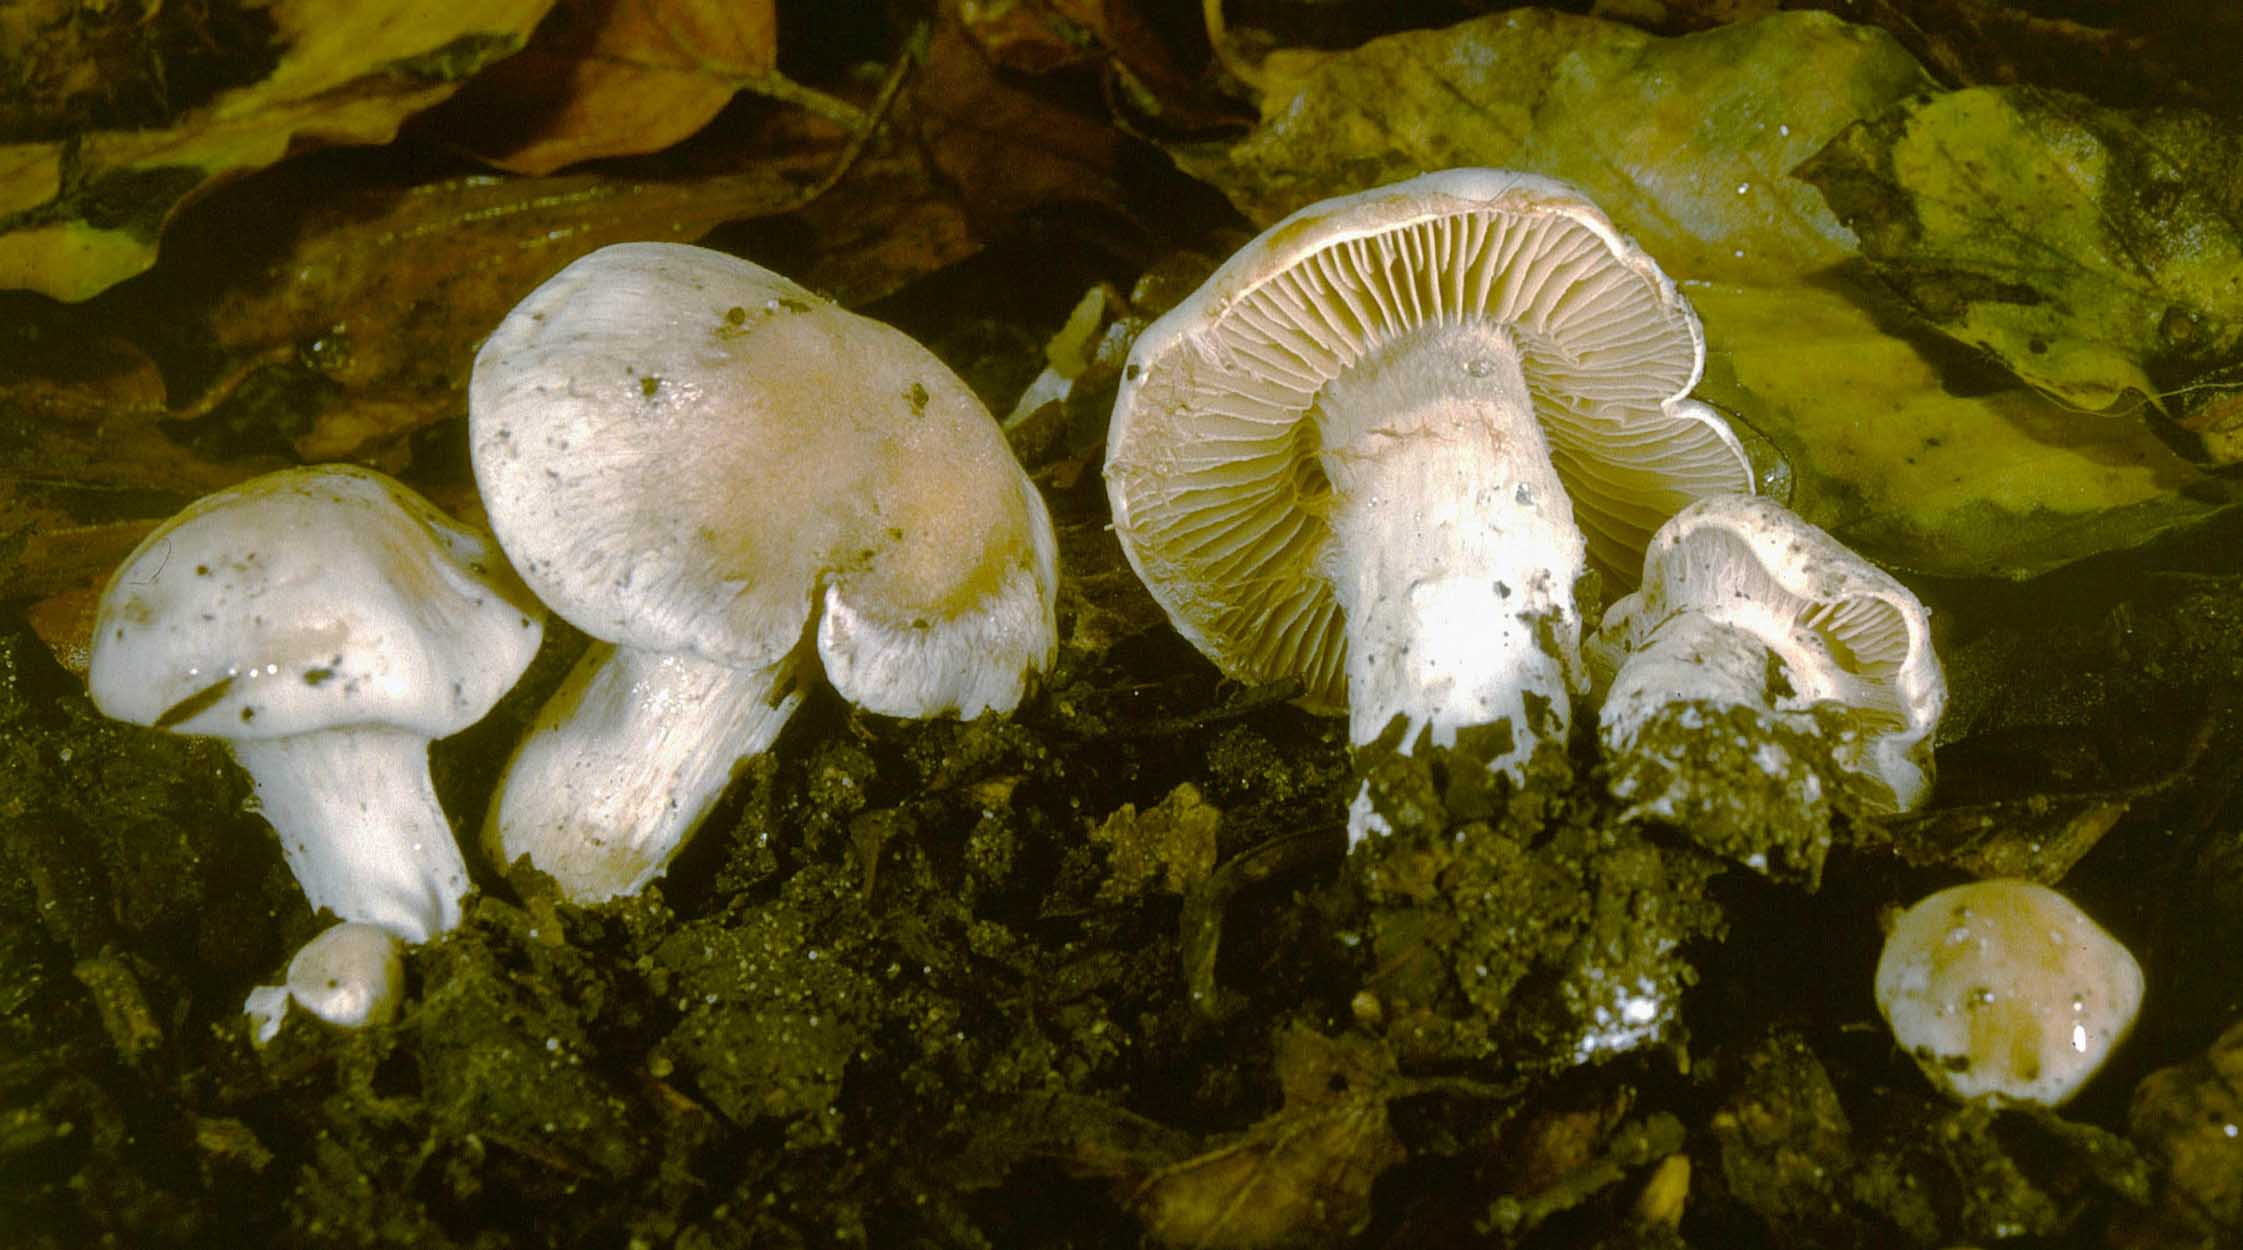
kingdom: Fungi
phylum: Basidiomycota
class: Agaricomycetes
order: Agaricales
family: Cortinariaceae
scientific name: Cortinariaceae
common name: slørhatfamilien
